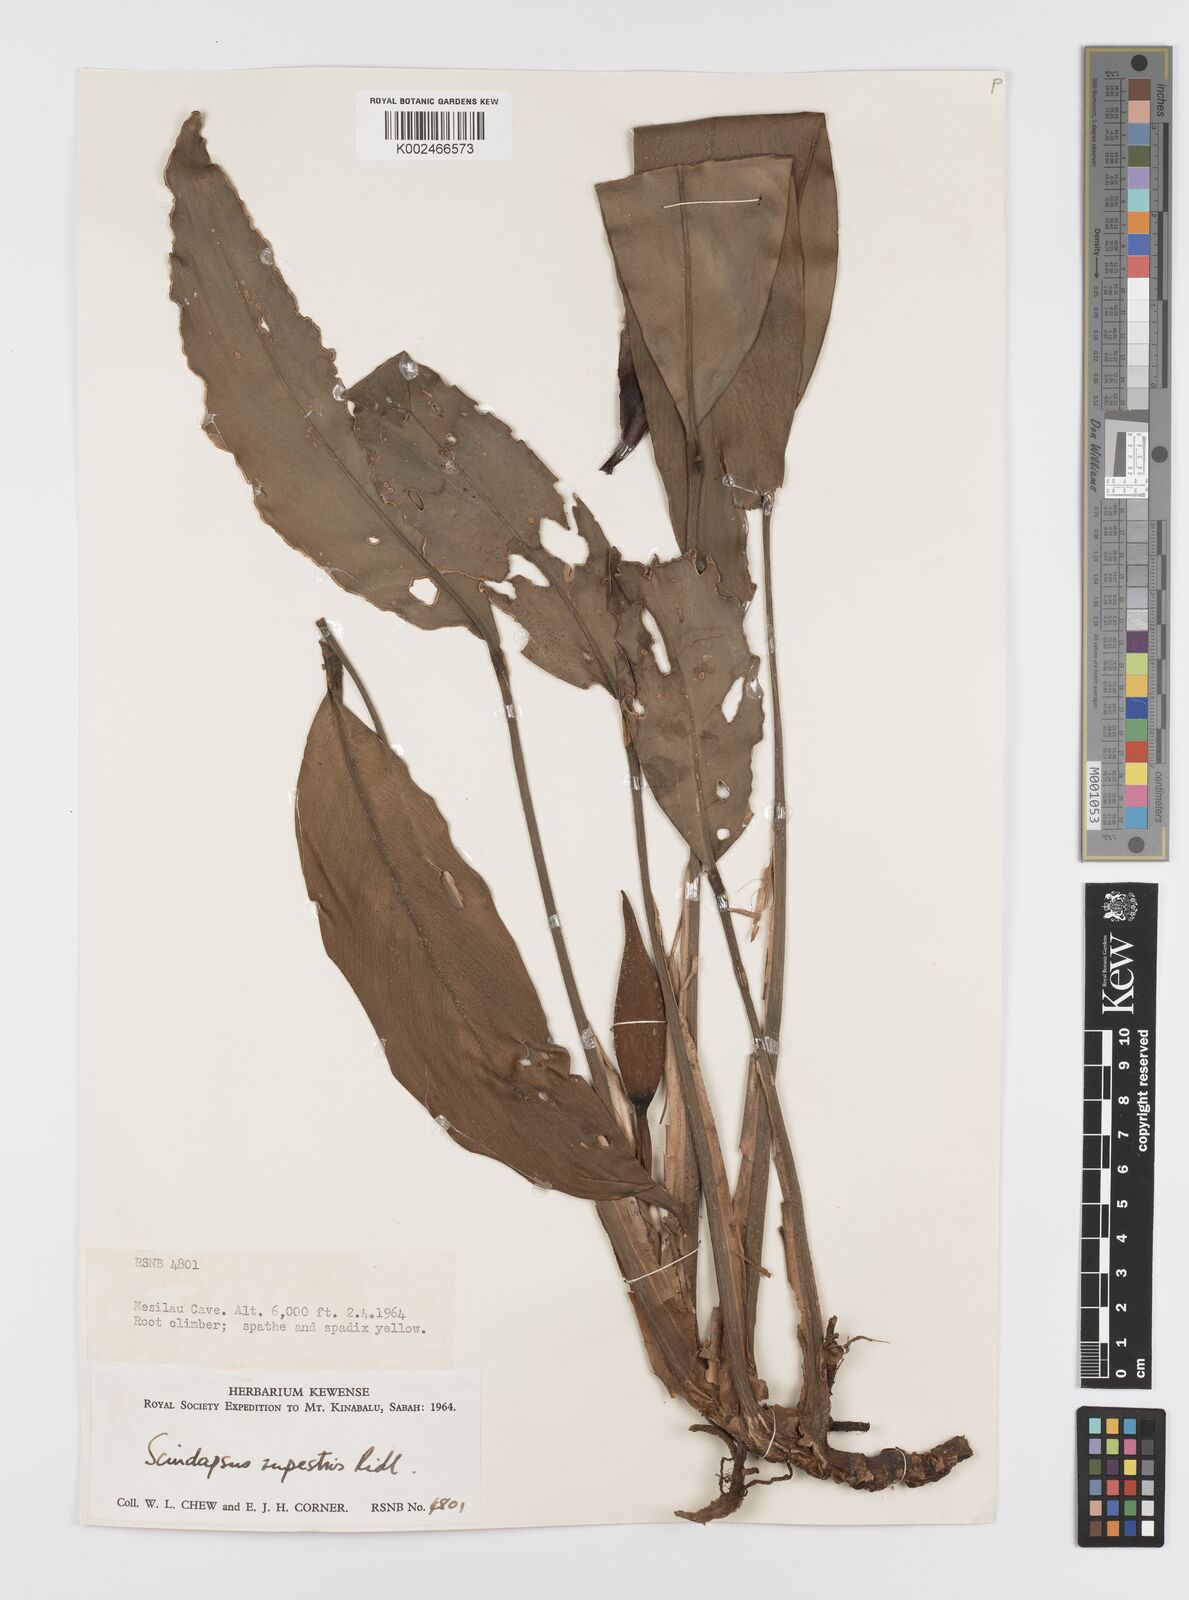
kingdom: Plantae
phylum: Tracheophyta
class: Liliopsida
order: Alismatales
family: Araceae
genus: Scindapsus
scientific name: Scindapsus coriaceus
